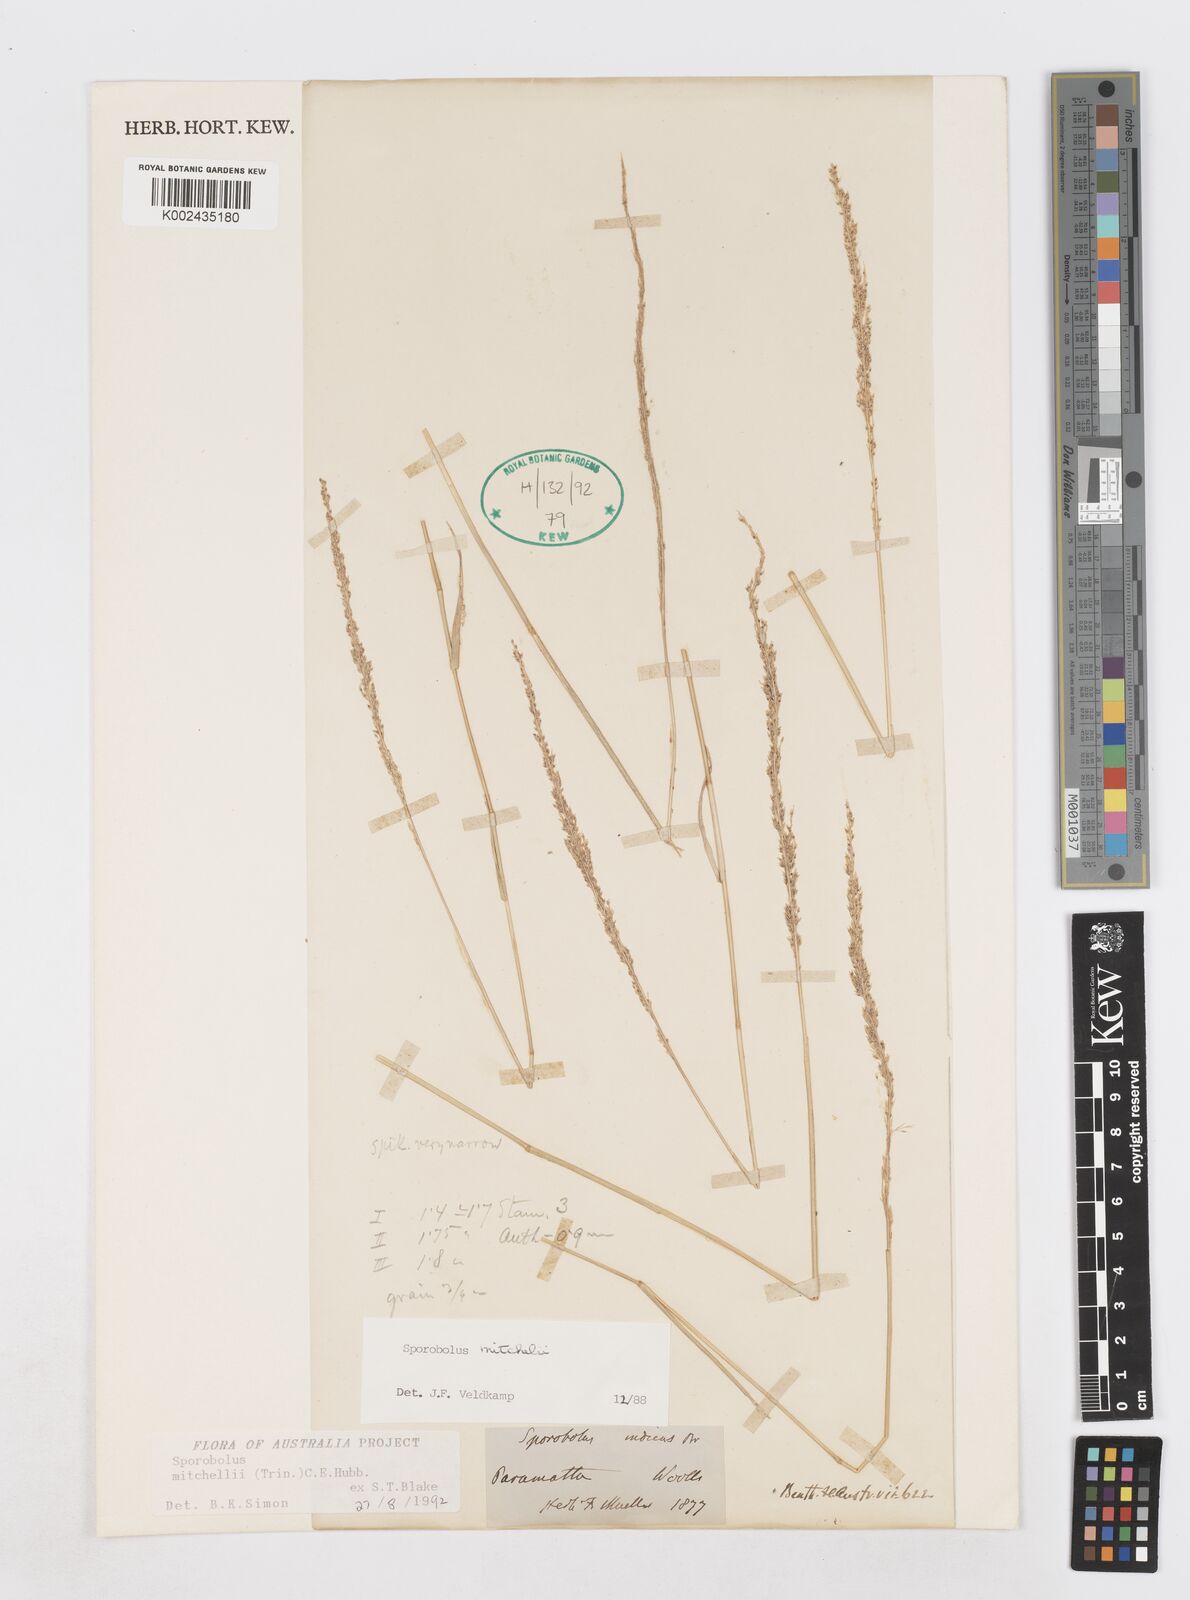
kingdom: Plantae
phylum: Tracheophyta
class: Liliopsida
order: Poales
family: Poaceae
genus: Sporobolus
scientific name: Sporobolus mitchellii
